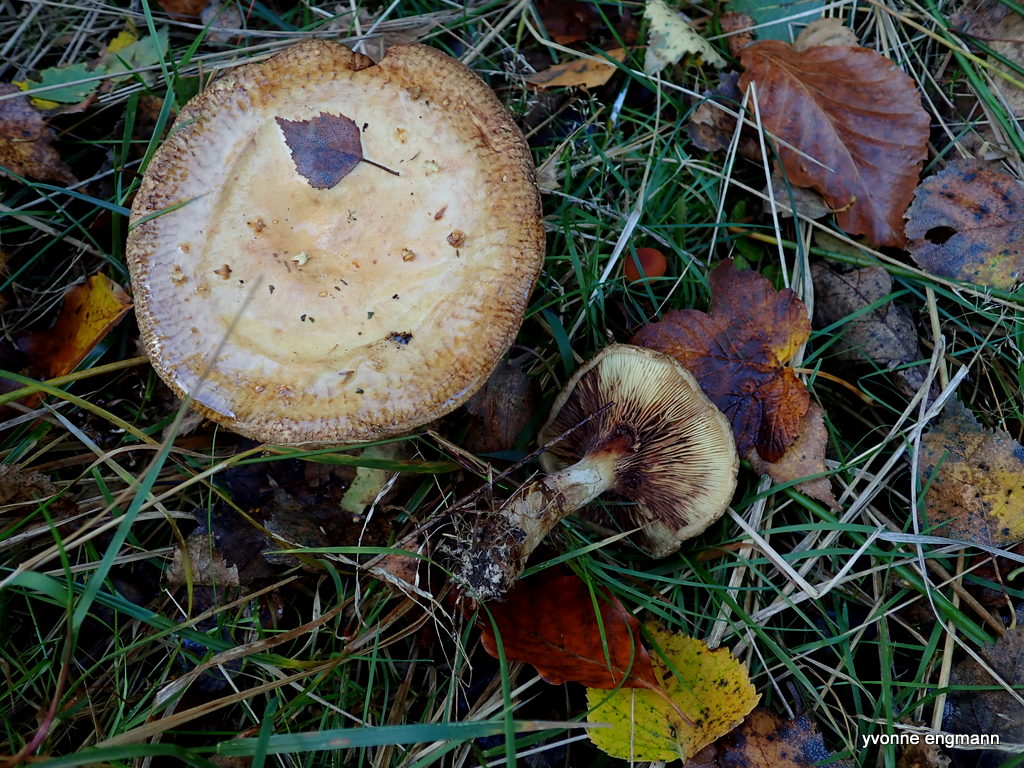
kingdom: Fungi
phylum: Basidiomycota
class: Agaricomycetes
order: Boletales
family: Paxillaceae
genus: Paxillus
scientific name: Paxillus involutus
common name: almindelig netbladhat
